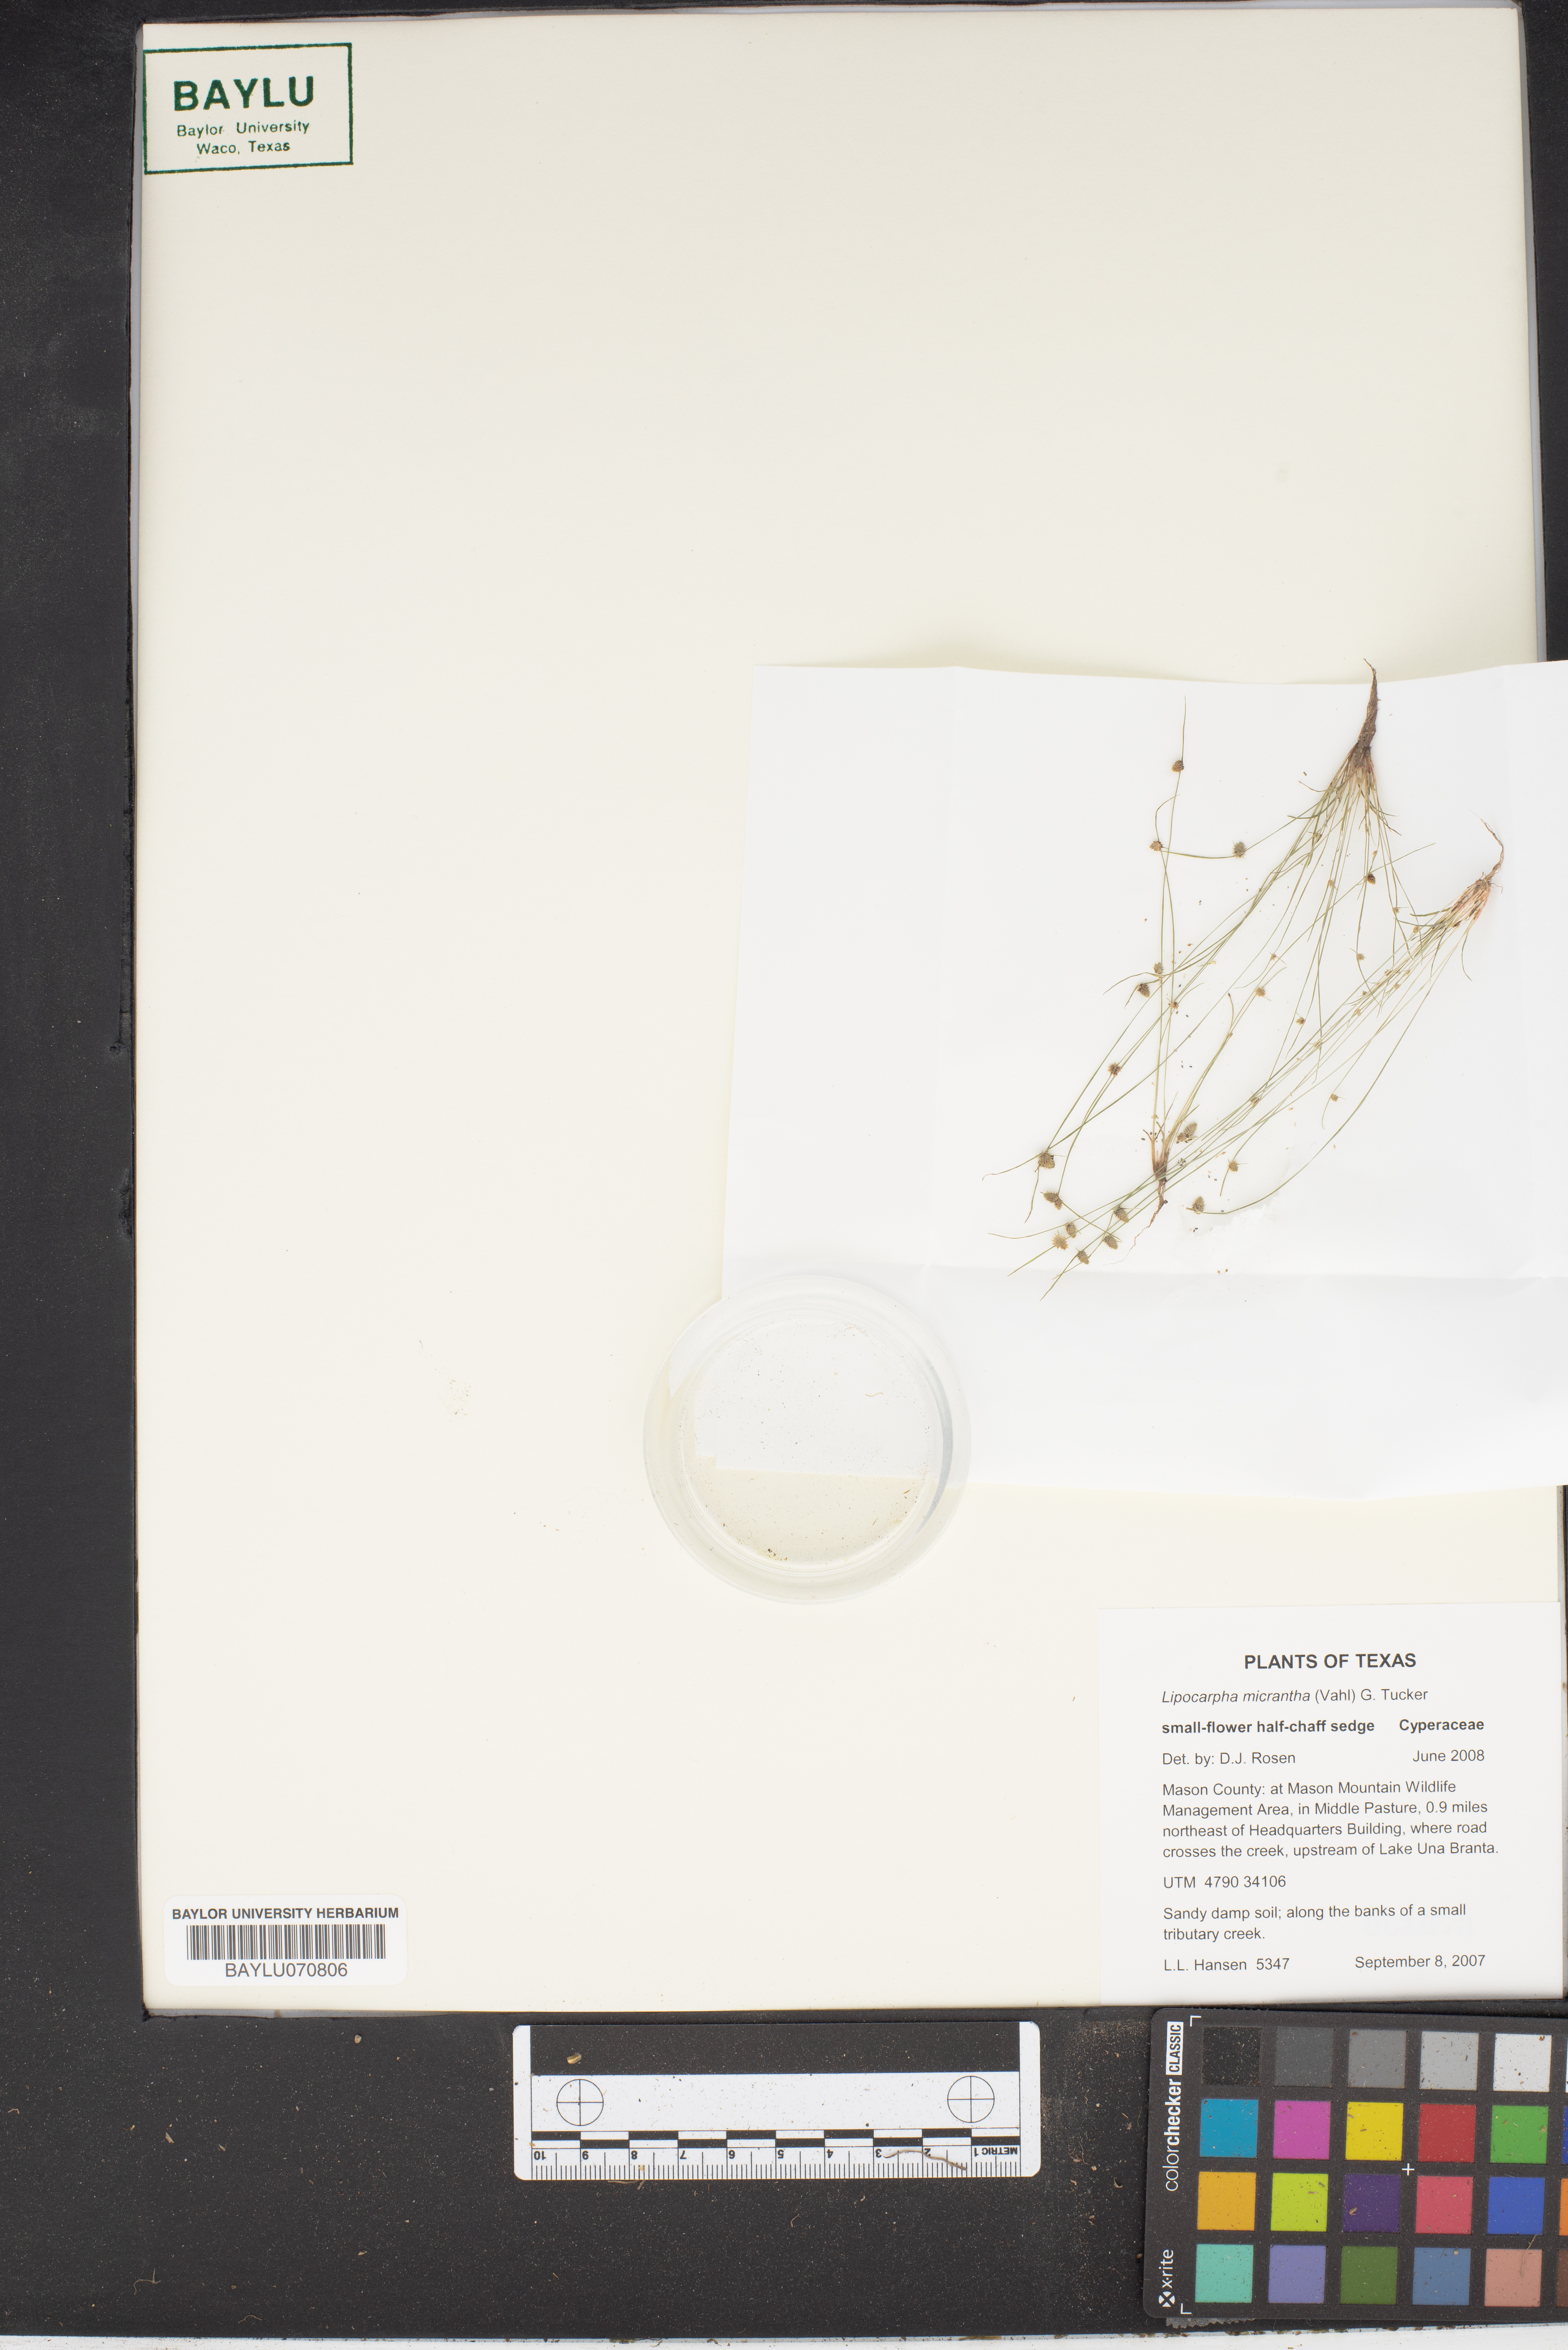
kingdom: Plantae
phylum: Tracheophyta
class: Liliopsida
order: Poales
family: Cyperaceae
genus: Cyperus
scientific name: Cyperus subsquarrosus
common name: Dwarf bulrush
